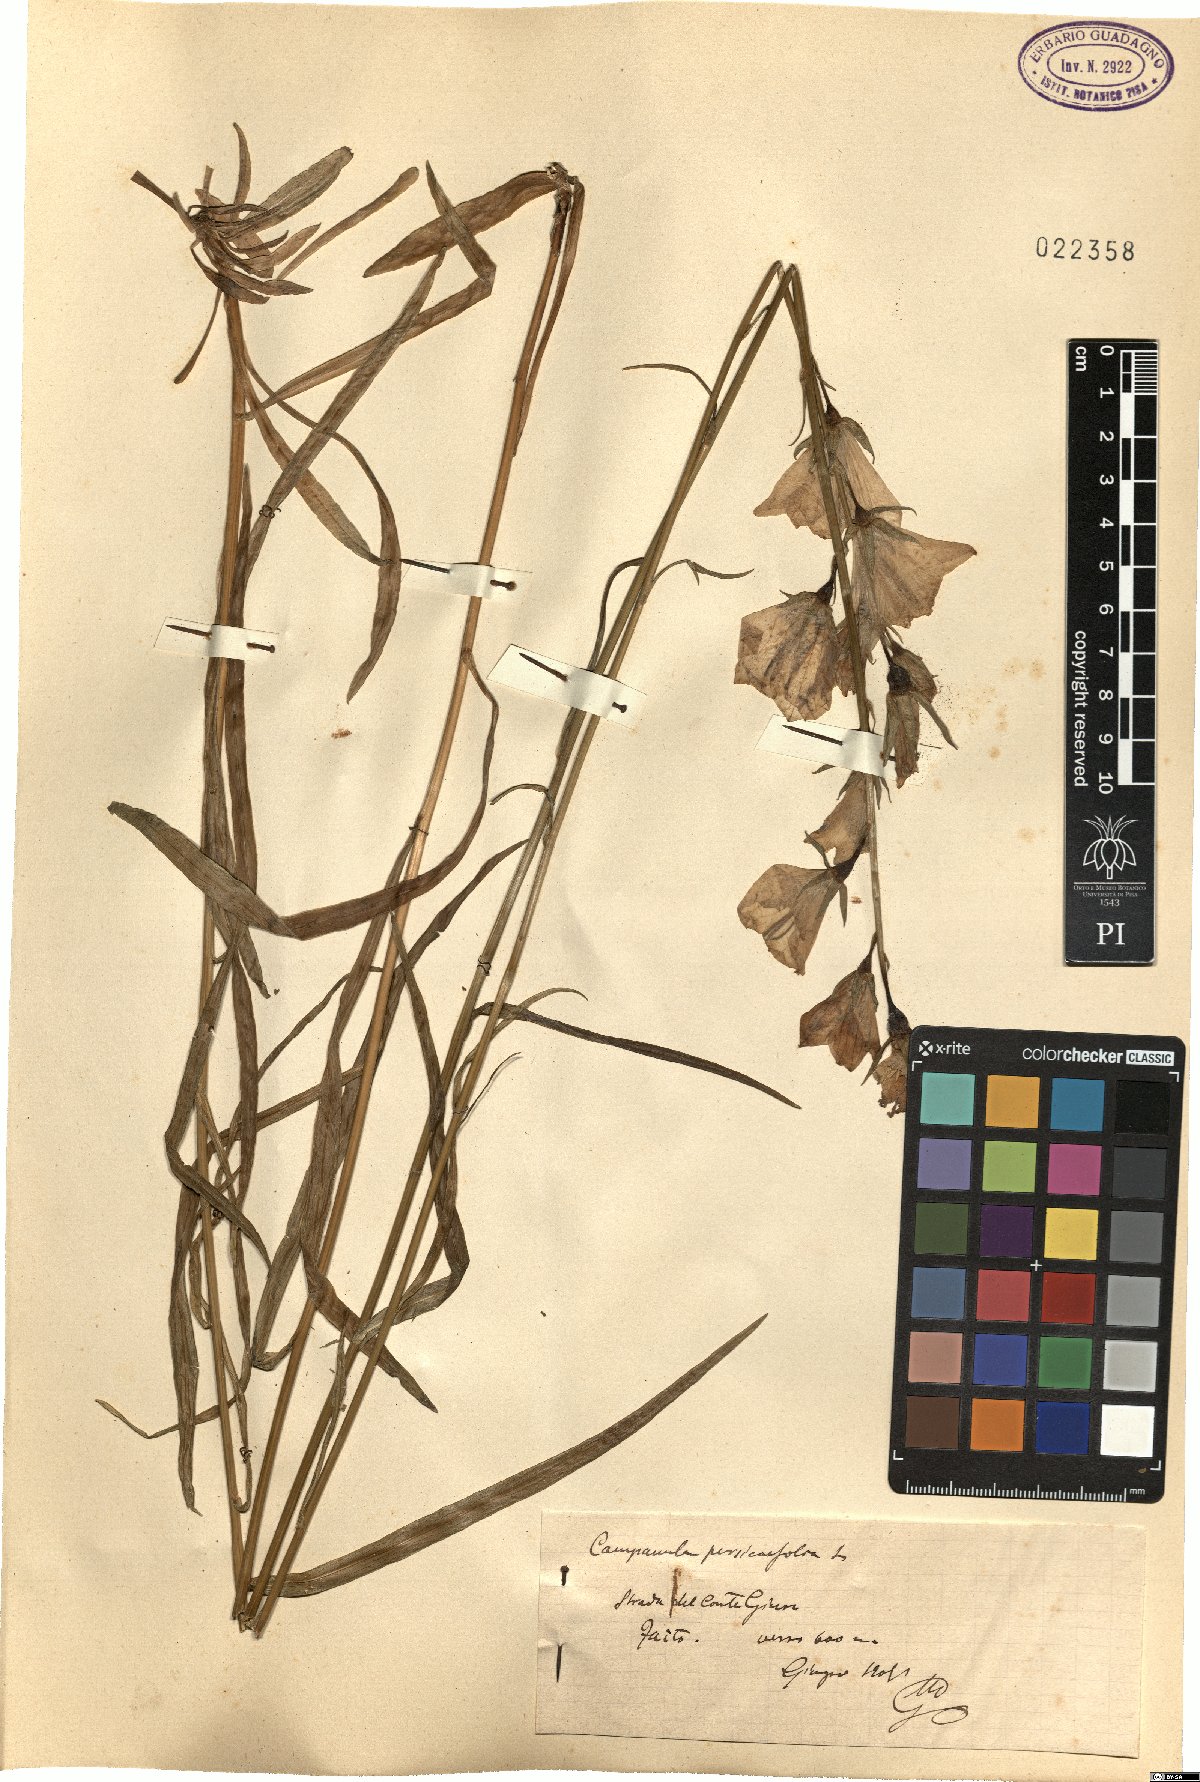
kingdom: Plantae
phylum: Tracheophyta
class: Magnoliopsida
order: Asterales
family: Campanulaceae
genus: Campanula
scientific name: Campanula persicifolia
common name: Peach-leaved bellflower
